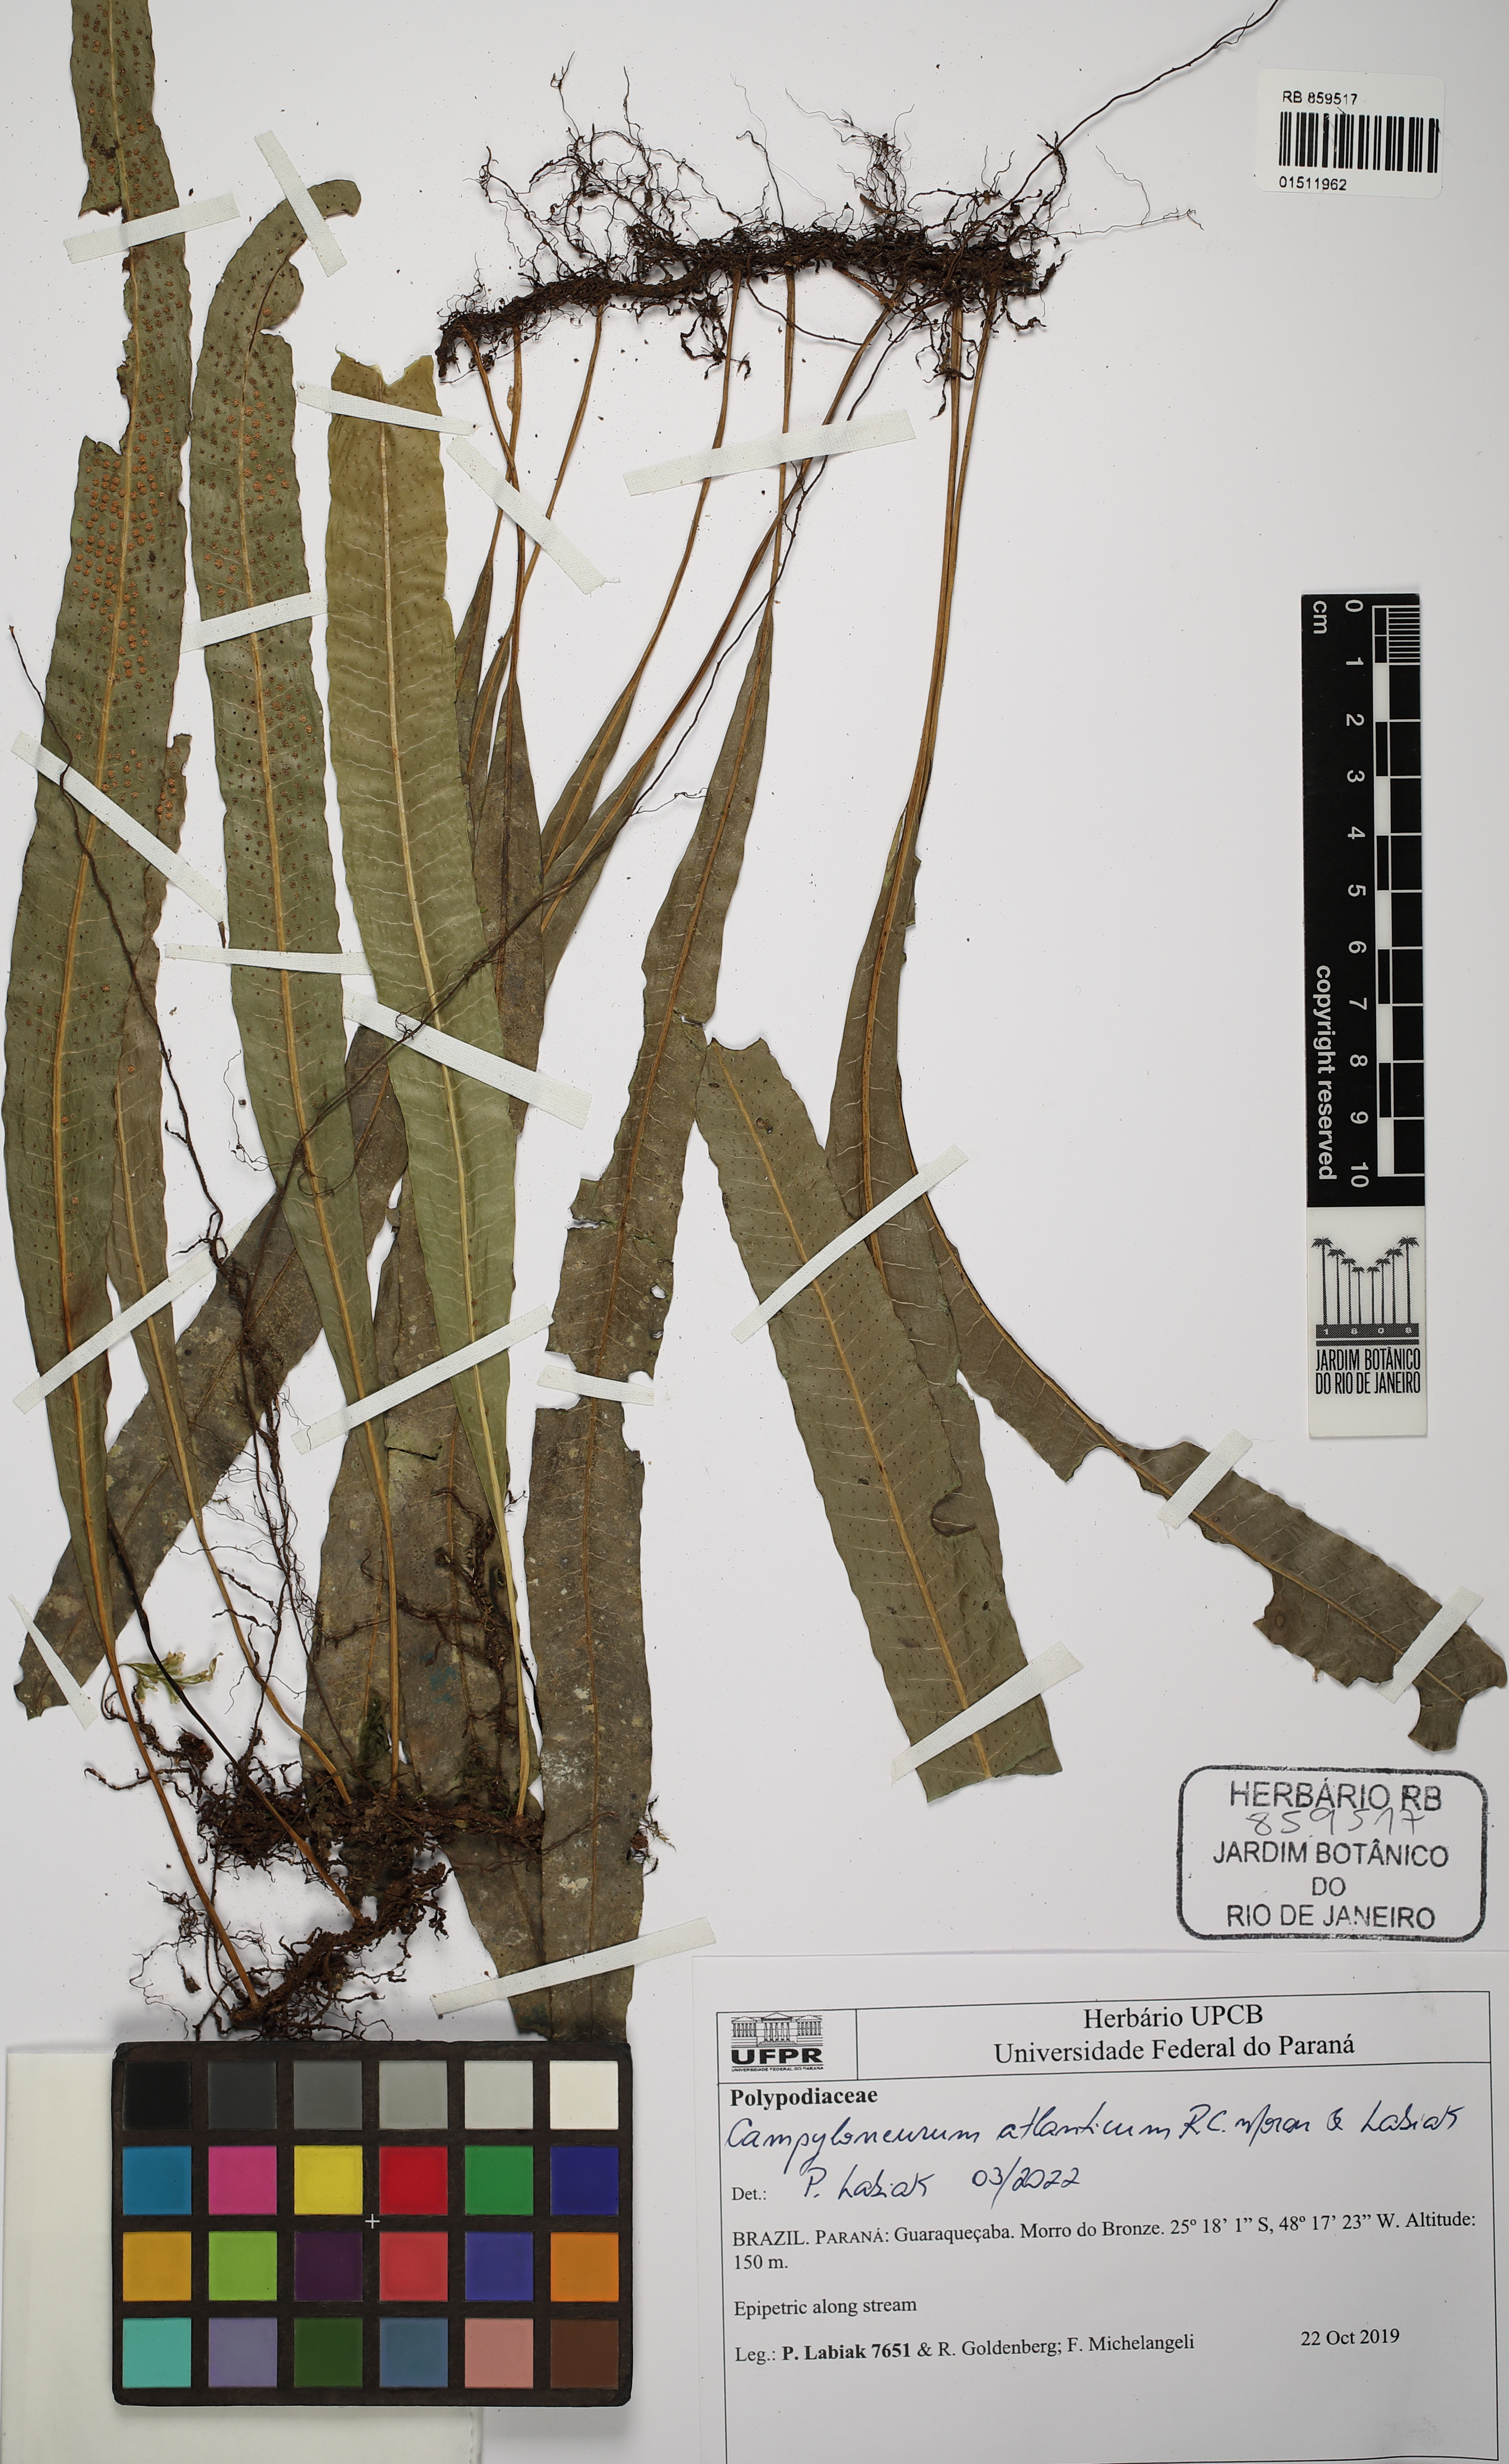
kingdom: Plantae
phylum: Tracheophyta
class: Polypodiopsida
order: Polypodiales
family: Polypodiaceae
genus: Campyloneurum
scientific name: Campyloneurum atlanticum
